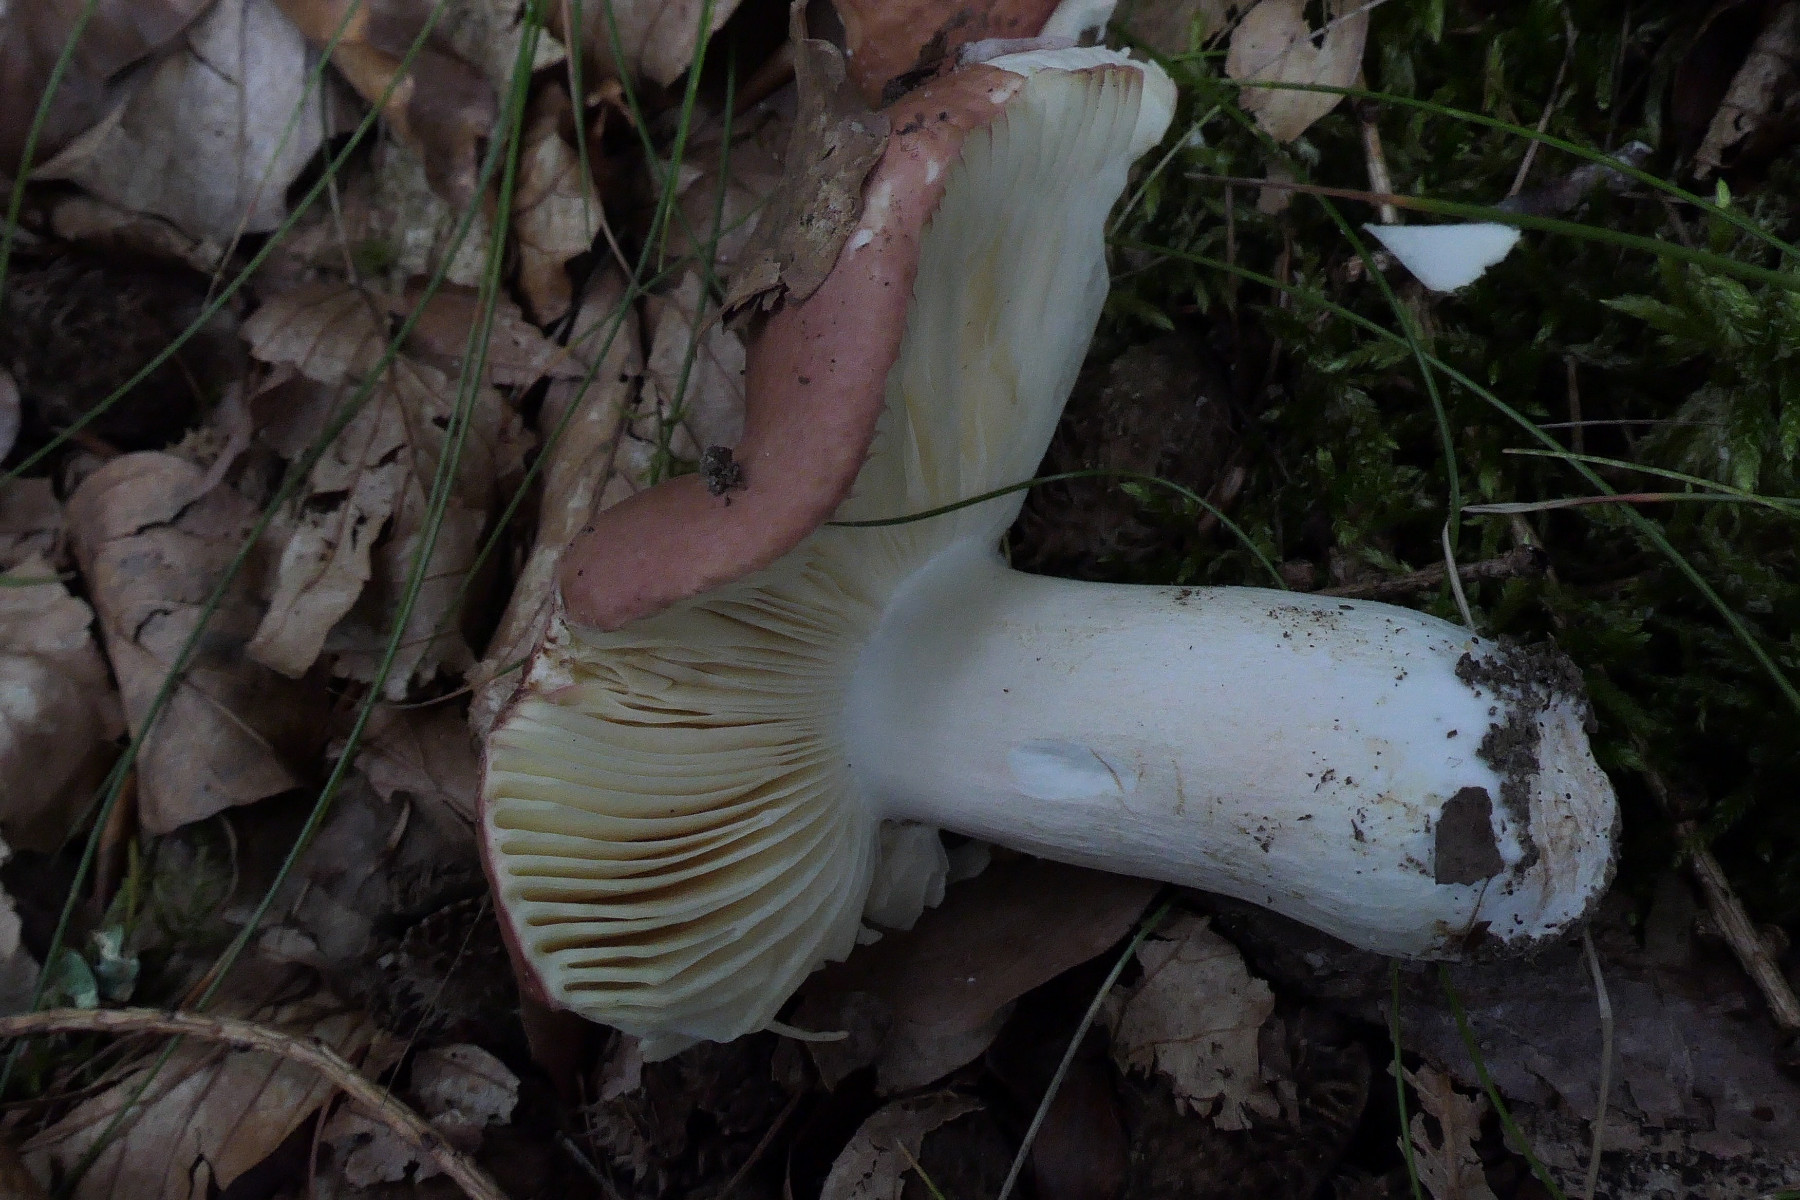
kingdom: Fungi
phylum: Basidiomycota
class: Agaricomycetes
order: Russulales
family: Russulaceae
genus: Russula
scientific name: Russula faginea
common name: bøge-skørhat
